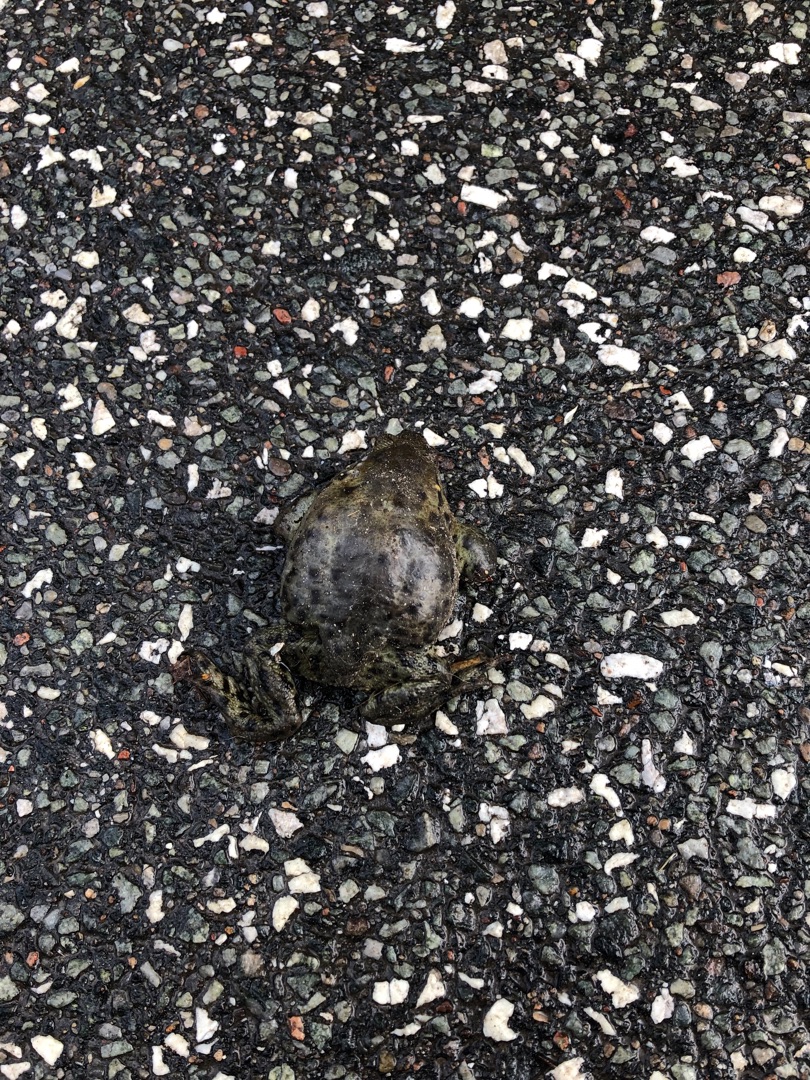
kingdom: Animalia
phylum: Chordata
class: Amphibia
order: Anura
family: Bufonidae
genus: Bufo
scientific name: Bufo bufo
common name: Skrubtudse
